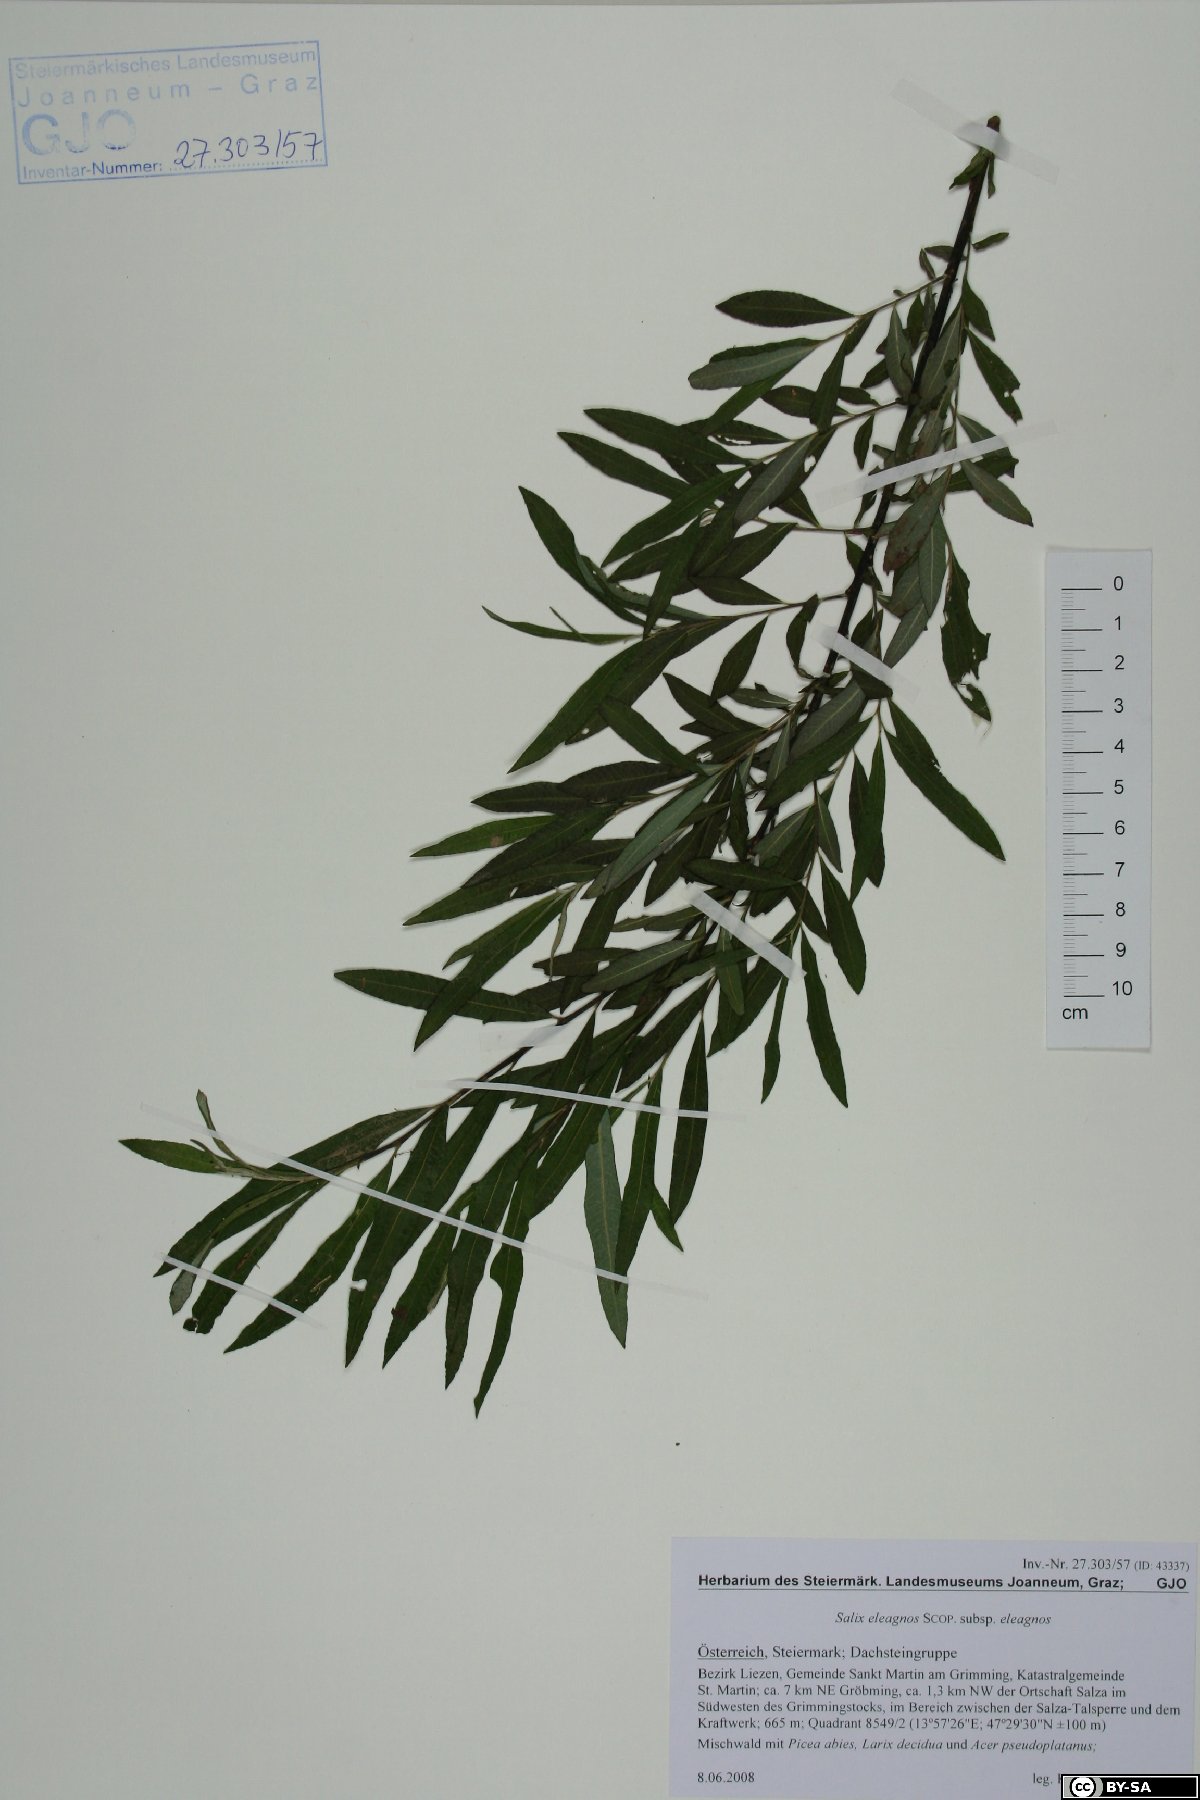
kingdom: Plantae
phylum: Tracheophyta
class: Magnoliopsida
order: Malpighiales
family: Salicaceae
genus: Salix
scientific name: Salix eleagnos
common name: Elaeagnus willow
